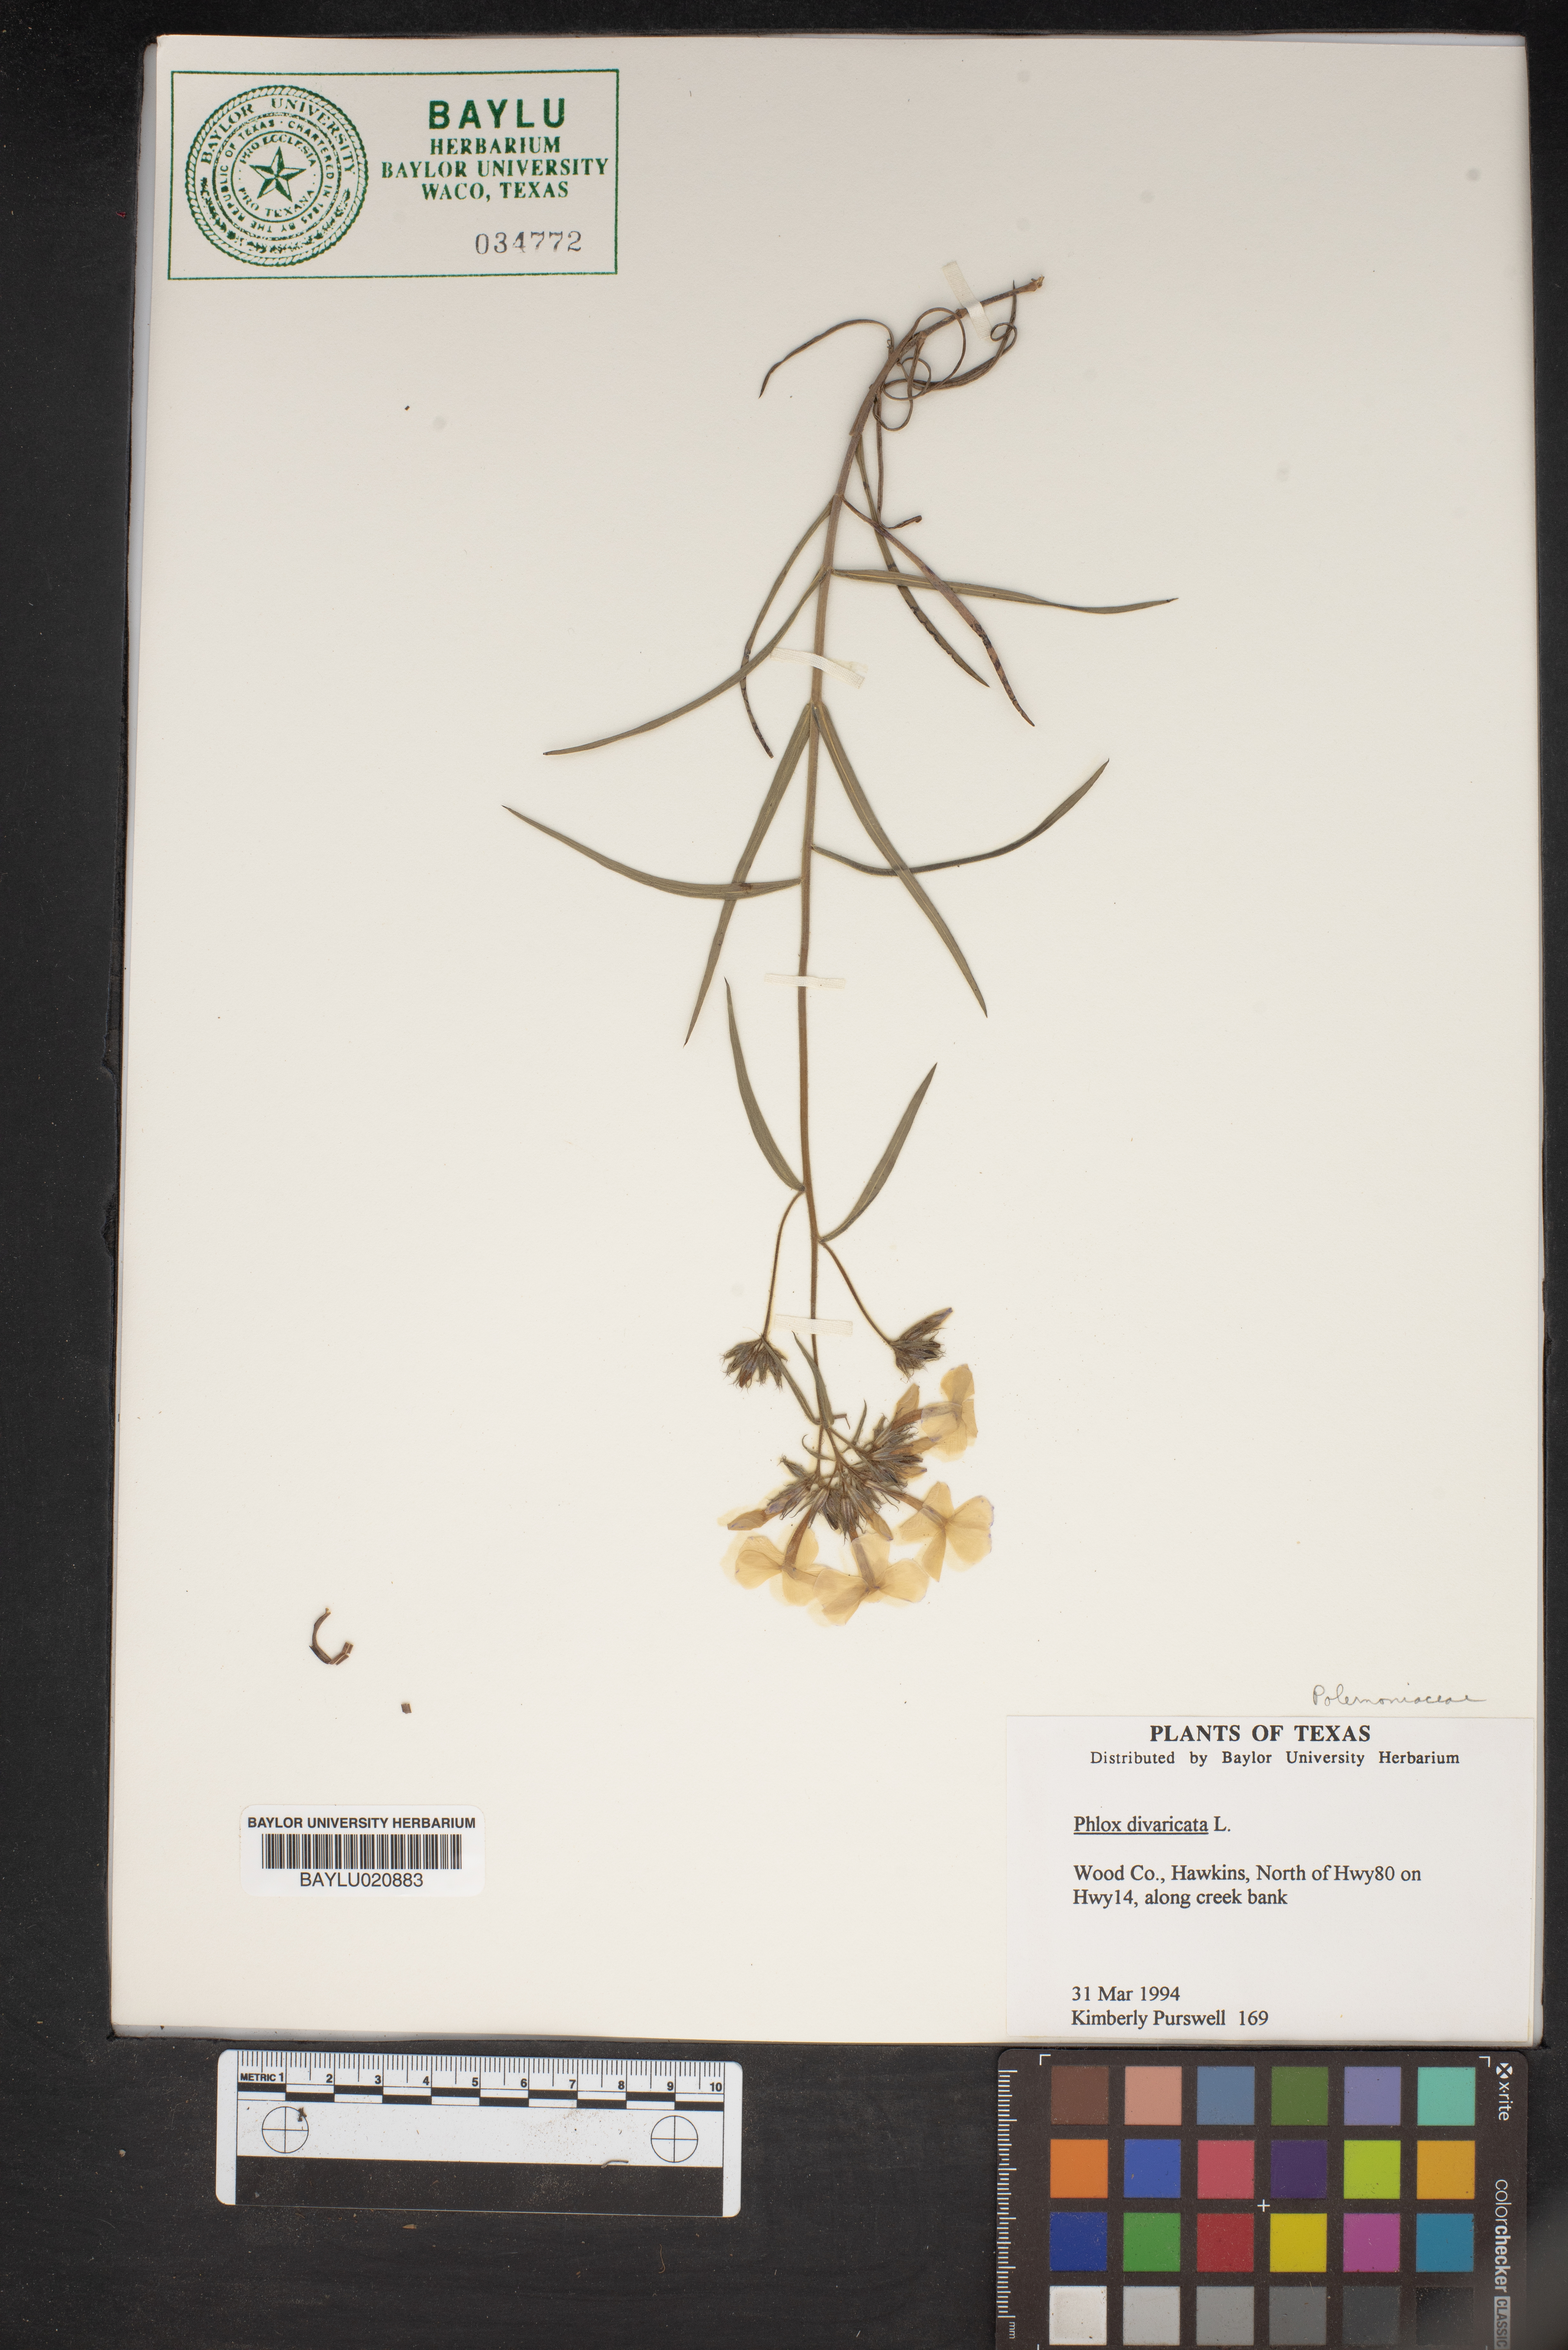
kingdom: Plantae
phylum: Tracheophyta
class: Magnoliopsida
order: Ericales
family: Polemoniaceae
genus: Phlox
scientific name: Phlox divaricata
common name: Blue phlox
